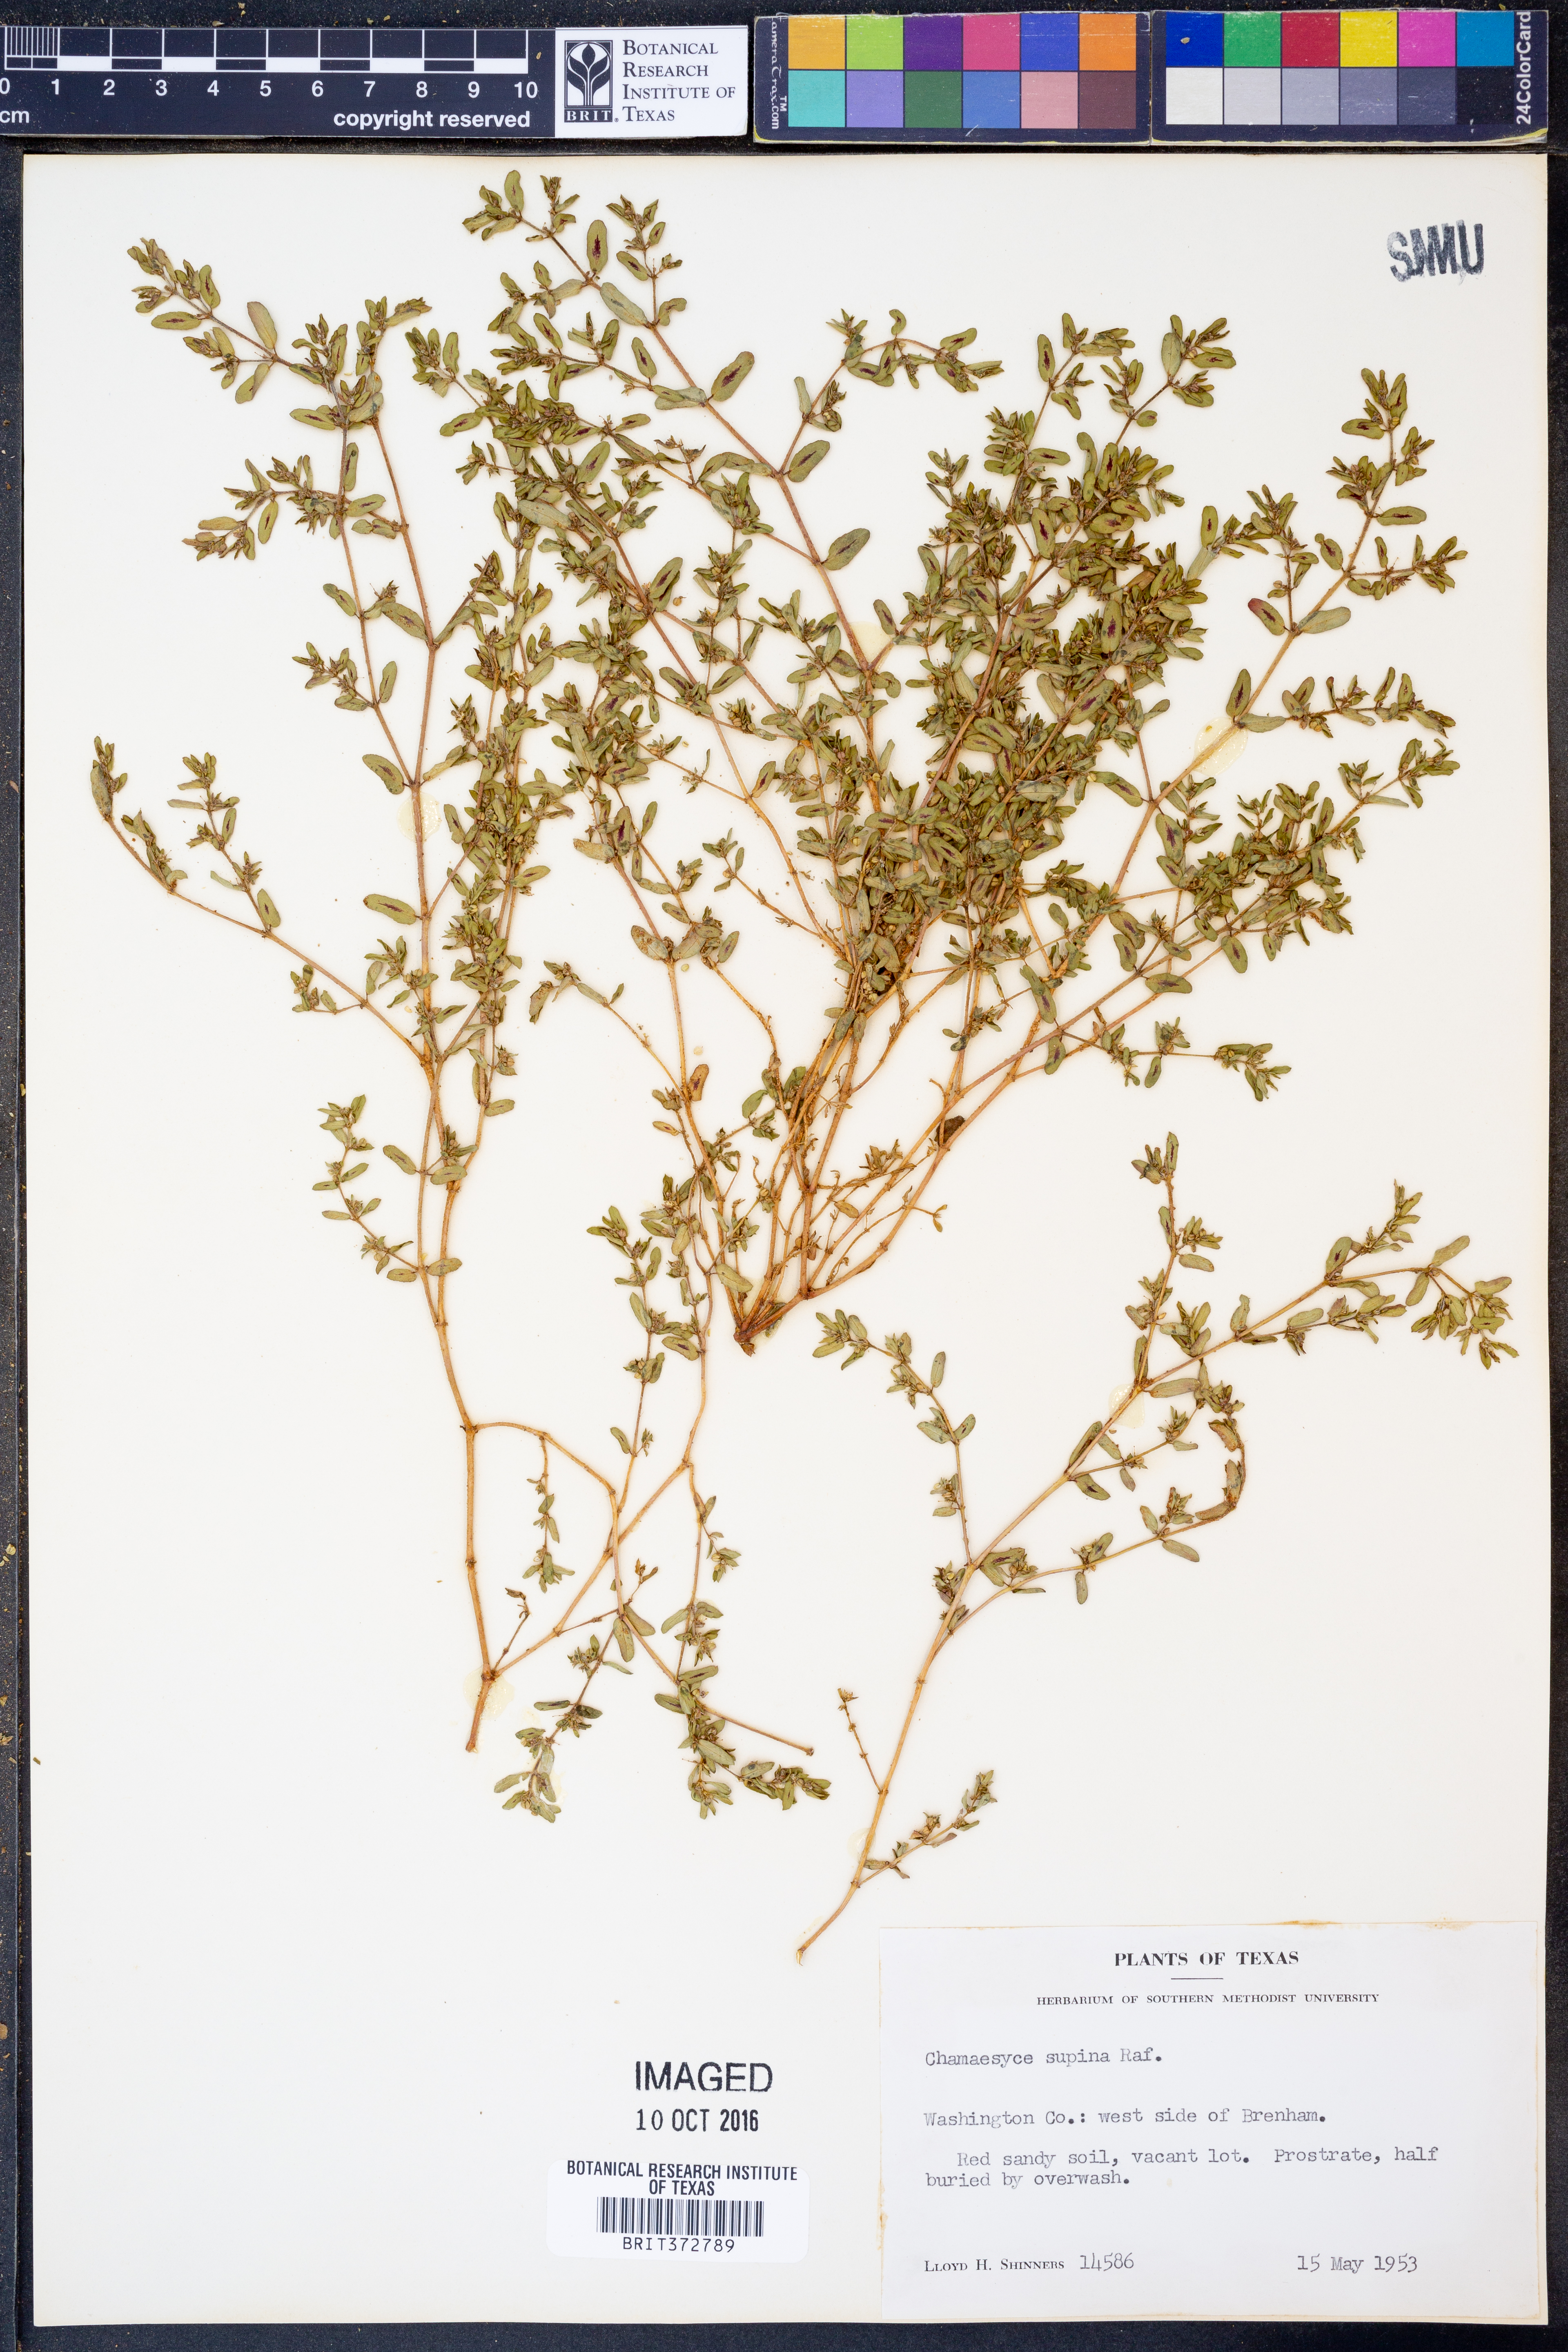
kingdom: Plantae
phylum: Tracheophyta
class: Magnoliopsida
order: Malpighiales
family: Euphorbiaceae
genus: Euphorbia
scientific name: Euphorbia maculata
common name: Spotted spurge
